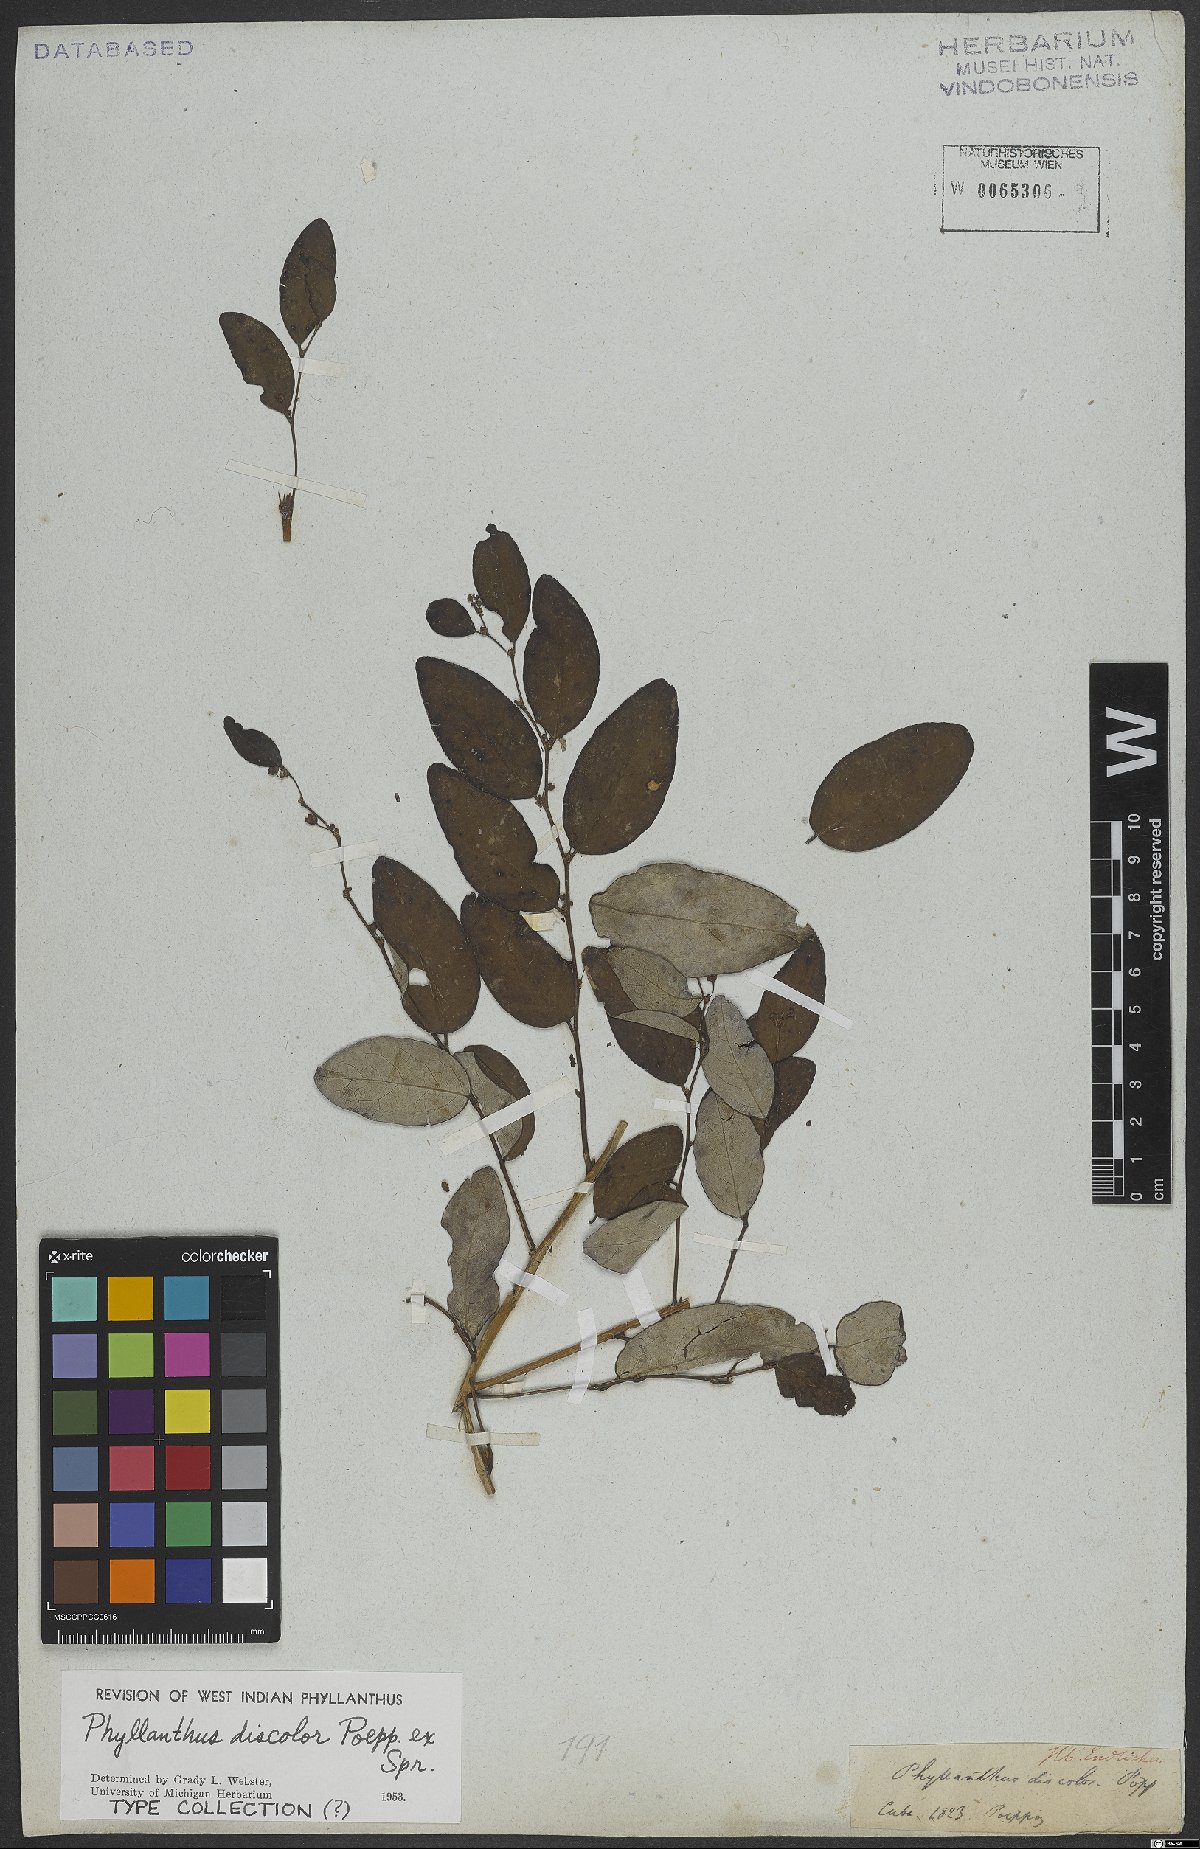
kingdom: Plantae
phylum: Tracheophyta
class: Magnoliopsida
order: Malpighiales
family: Phyllanthaceae
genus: Phyllanthus
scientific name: Phyllanthus discolor
